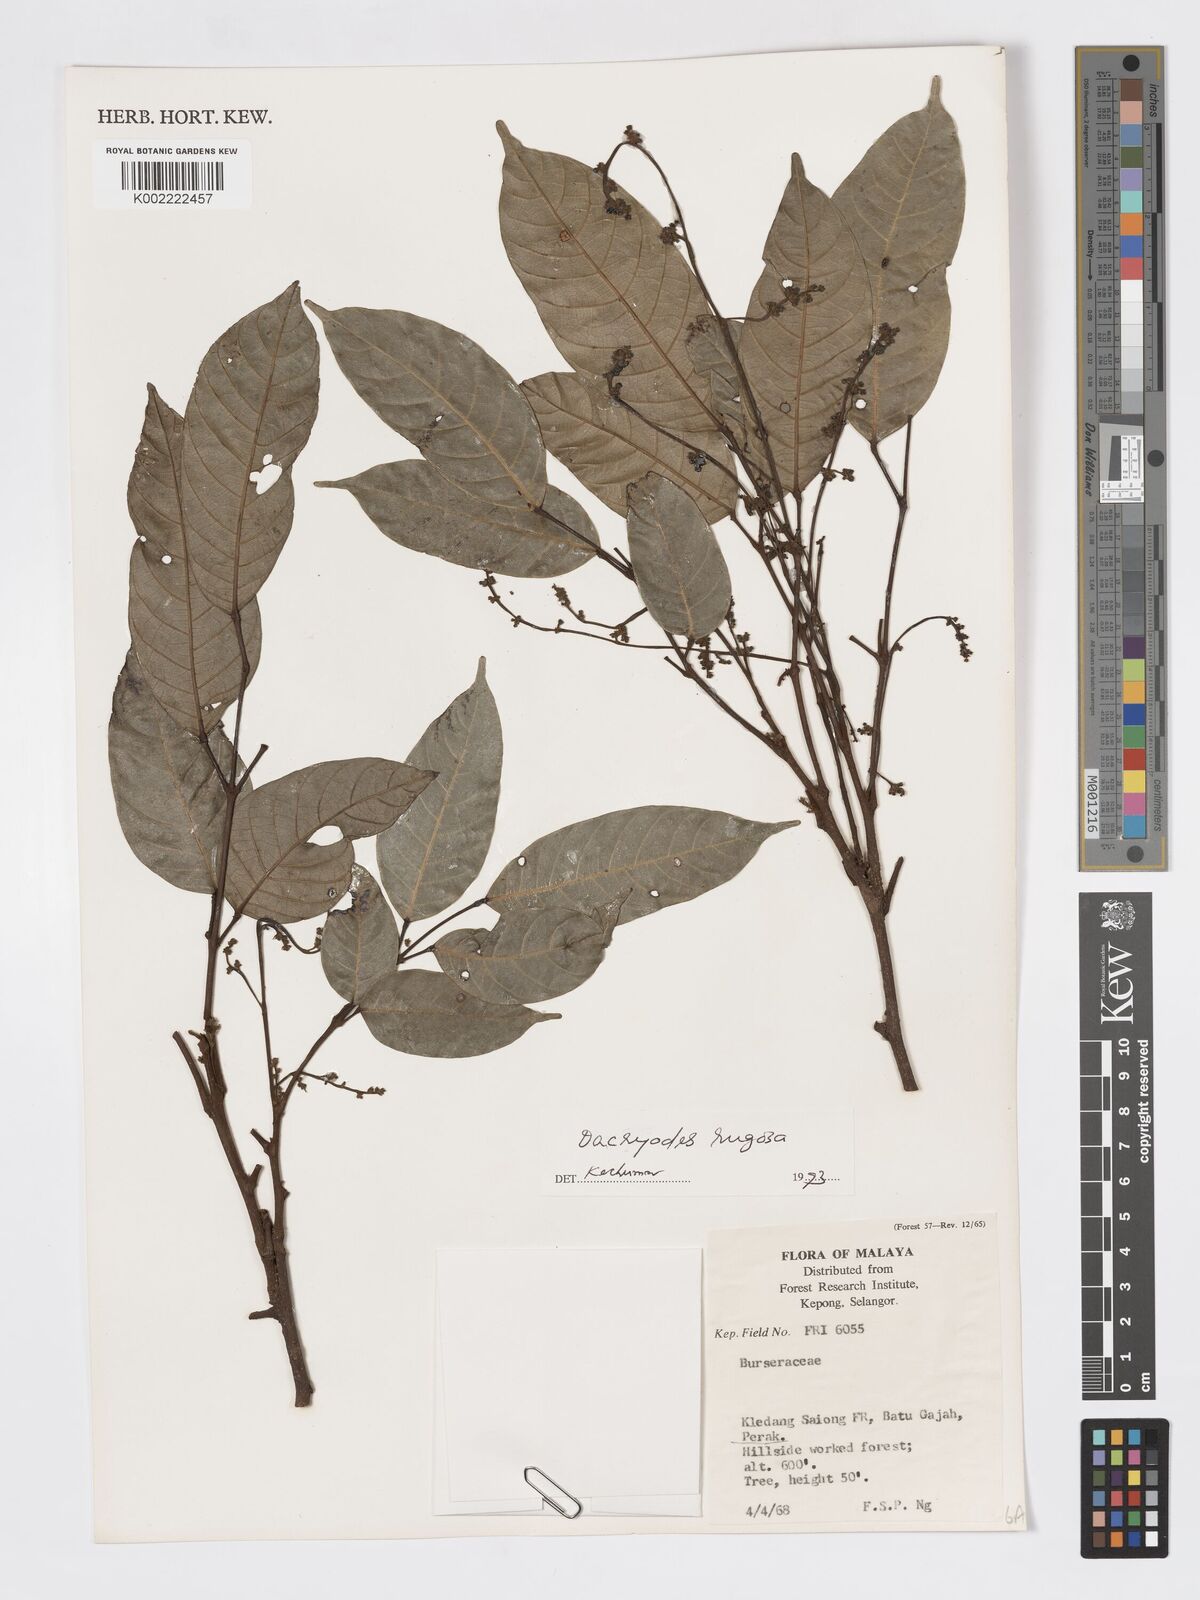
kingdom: Plantae
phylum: Tracheophyta
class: Magnoliopsida
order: Sapindales
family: Burseraceae
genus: Dacryodes
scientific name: Dacryodes rugosa
